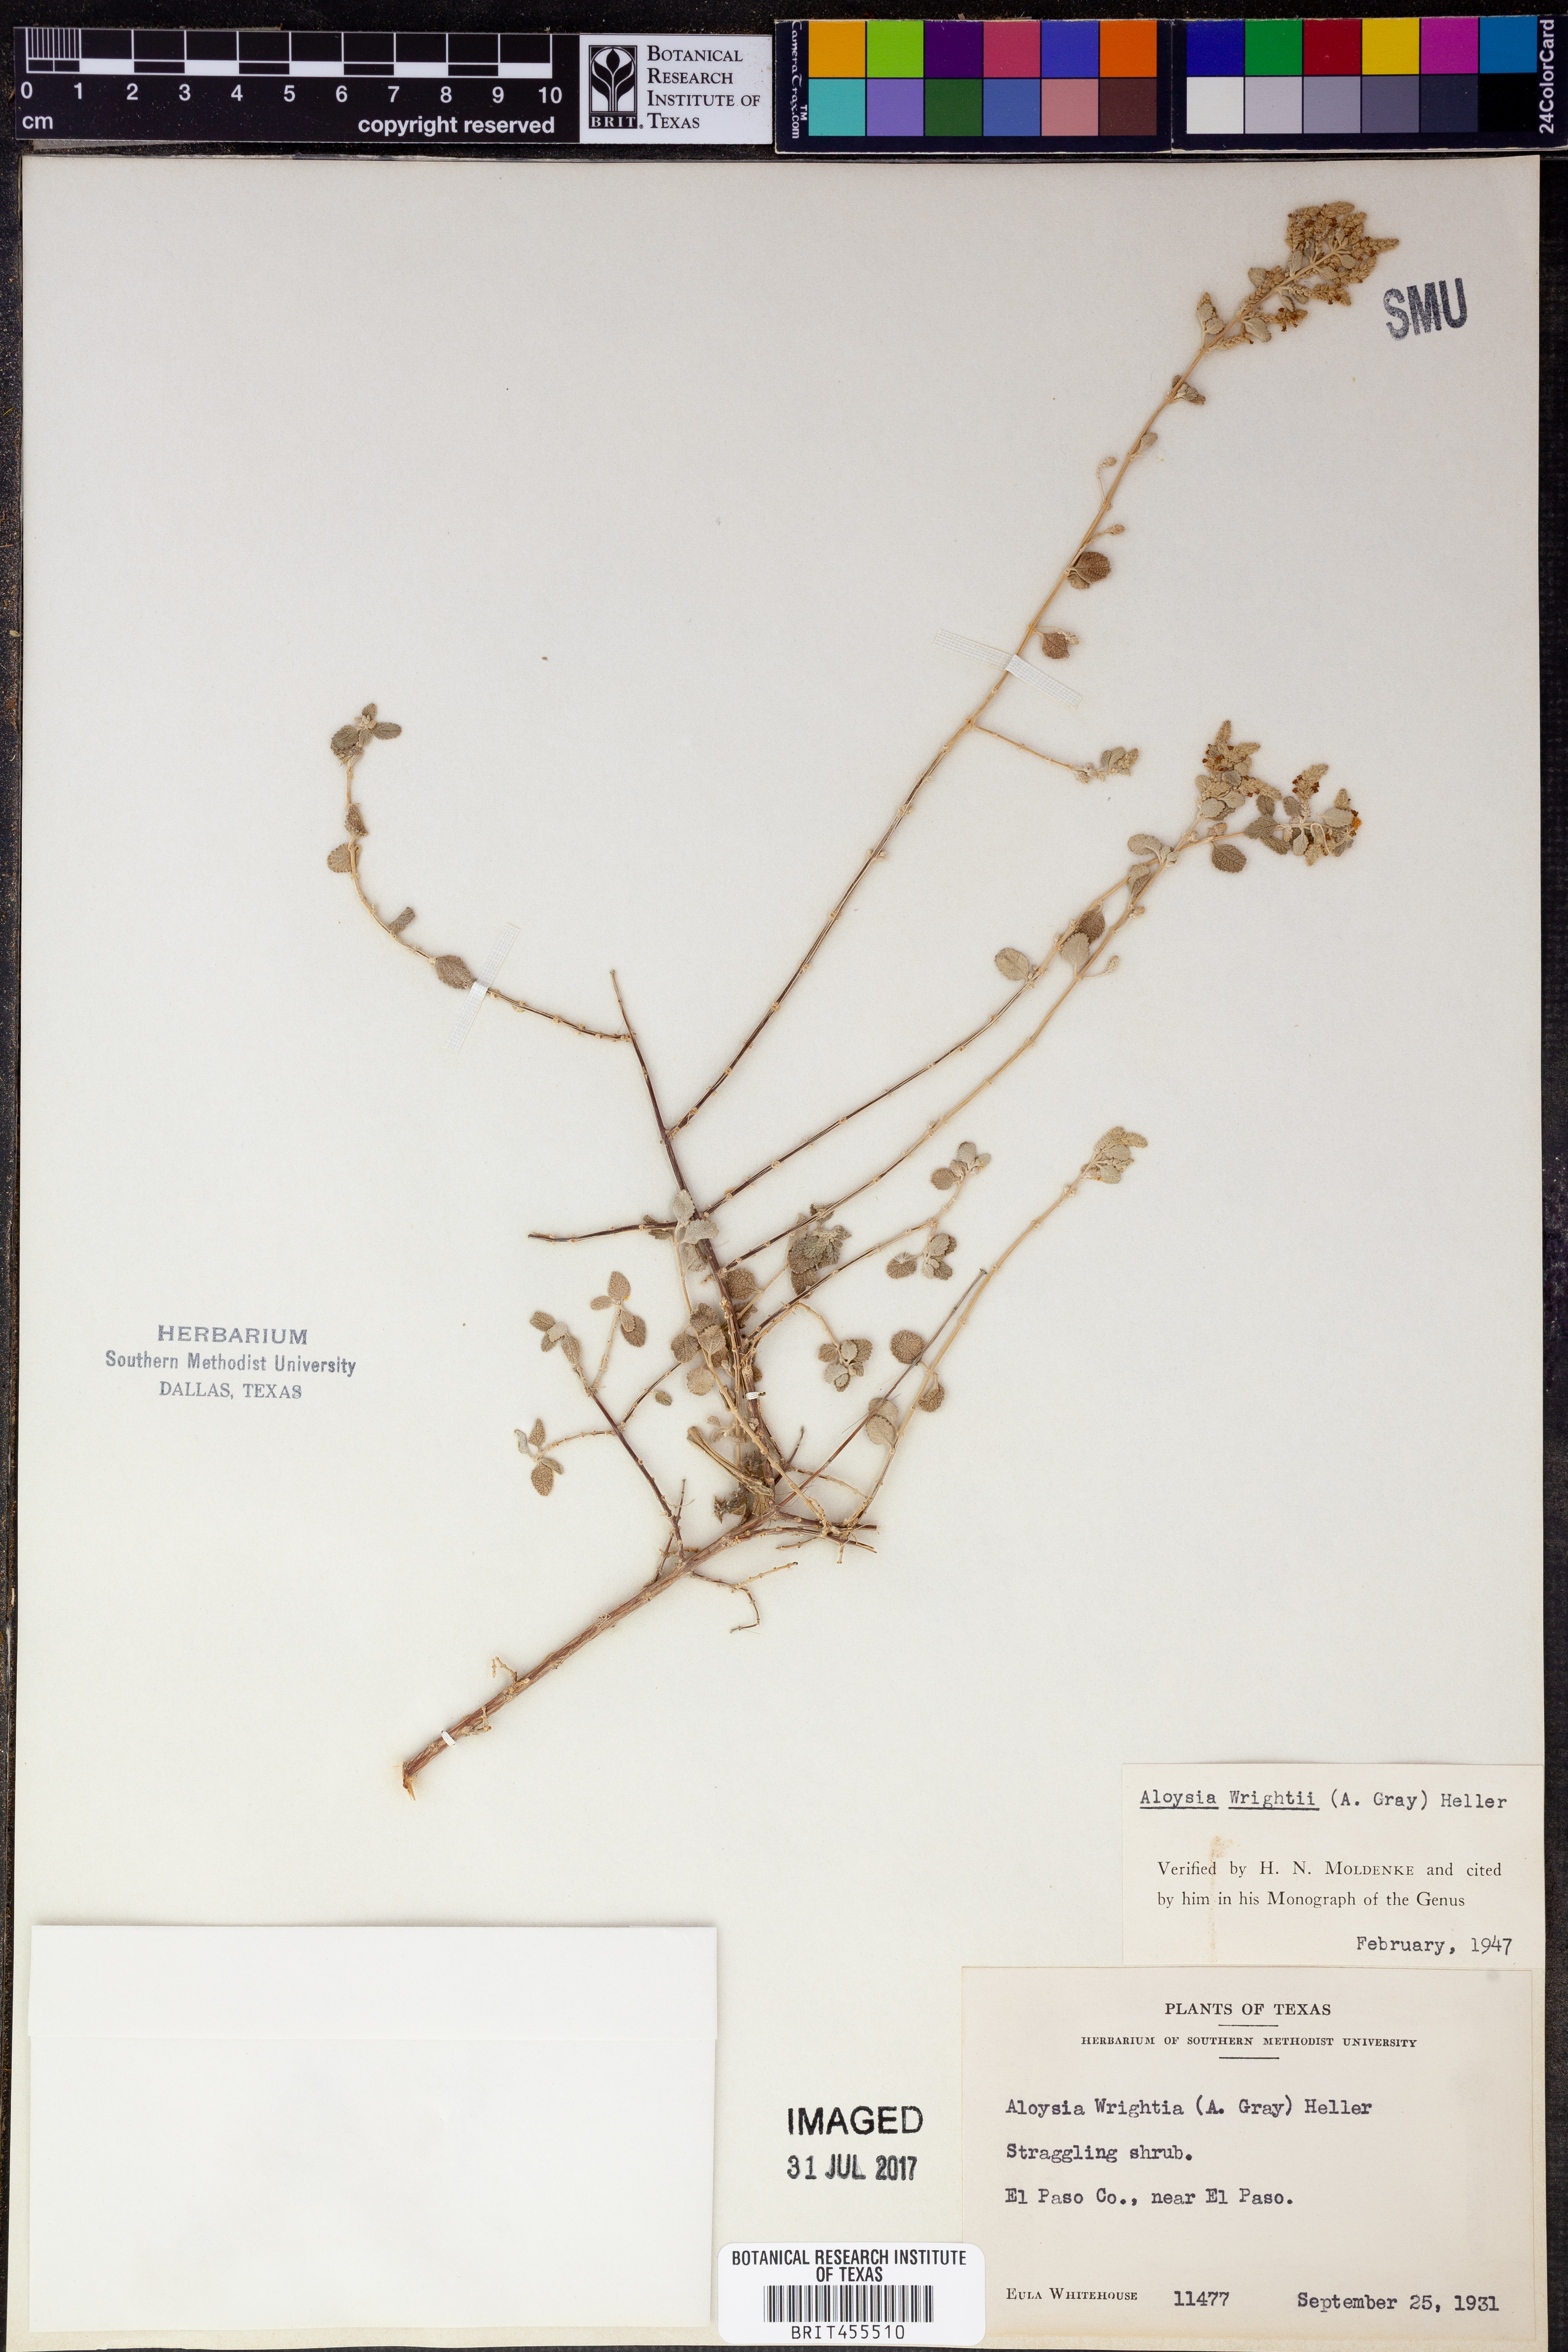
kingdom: Plantae
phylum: Tracheophyta
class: Magnoliopsida
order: Lamiales
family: Verbenaceae
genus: Aloysia
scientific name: Aloysia wrightii
